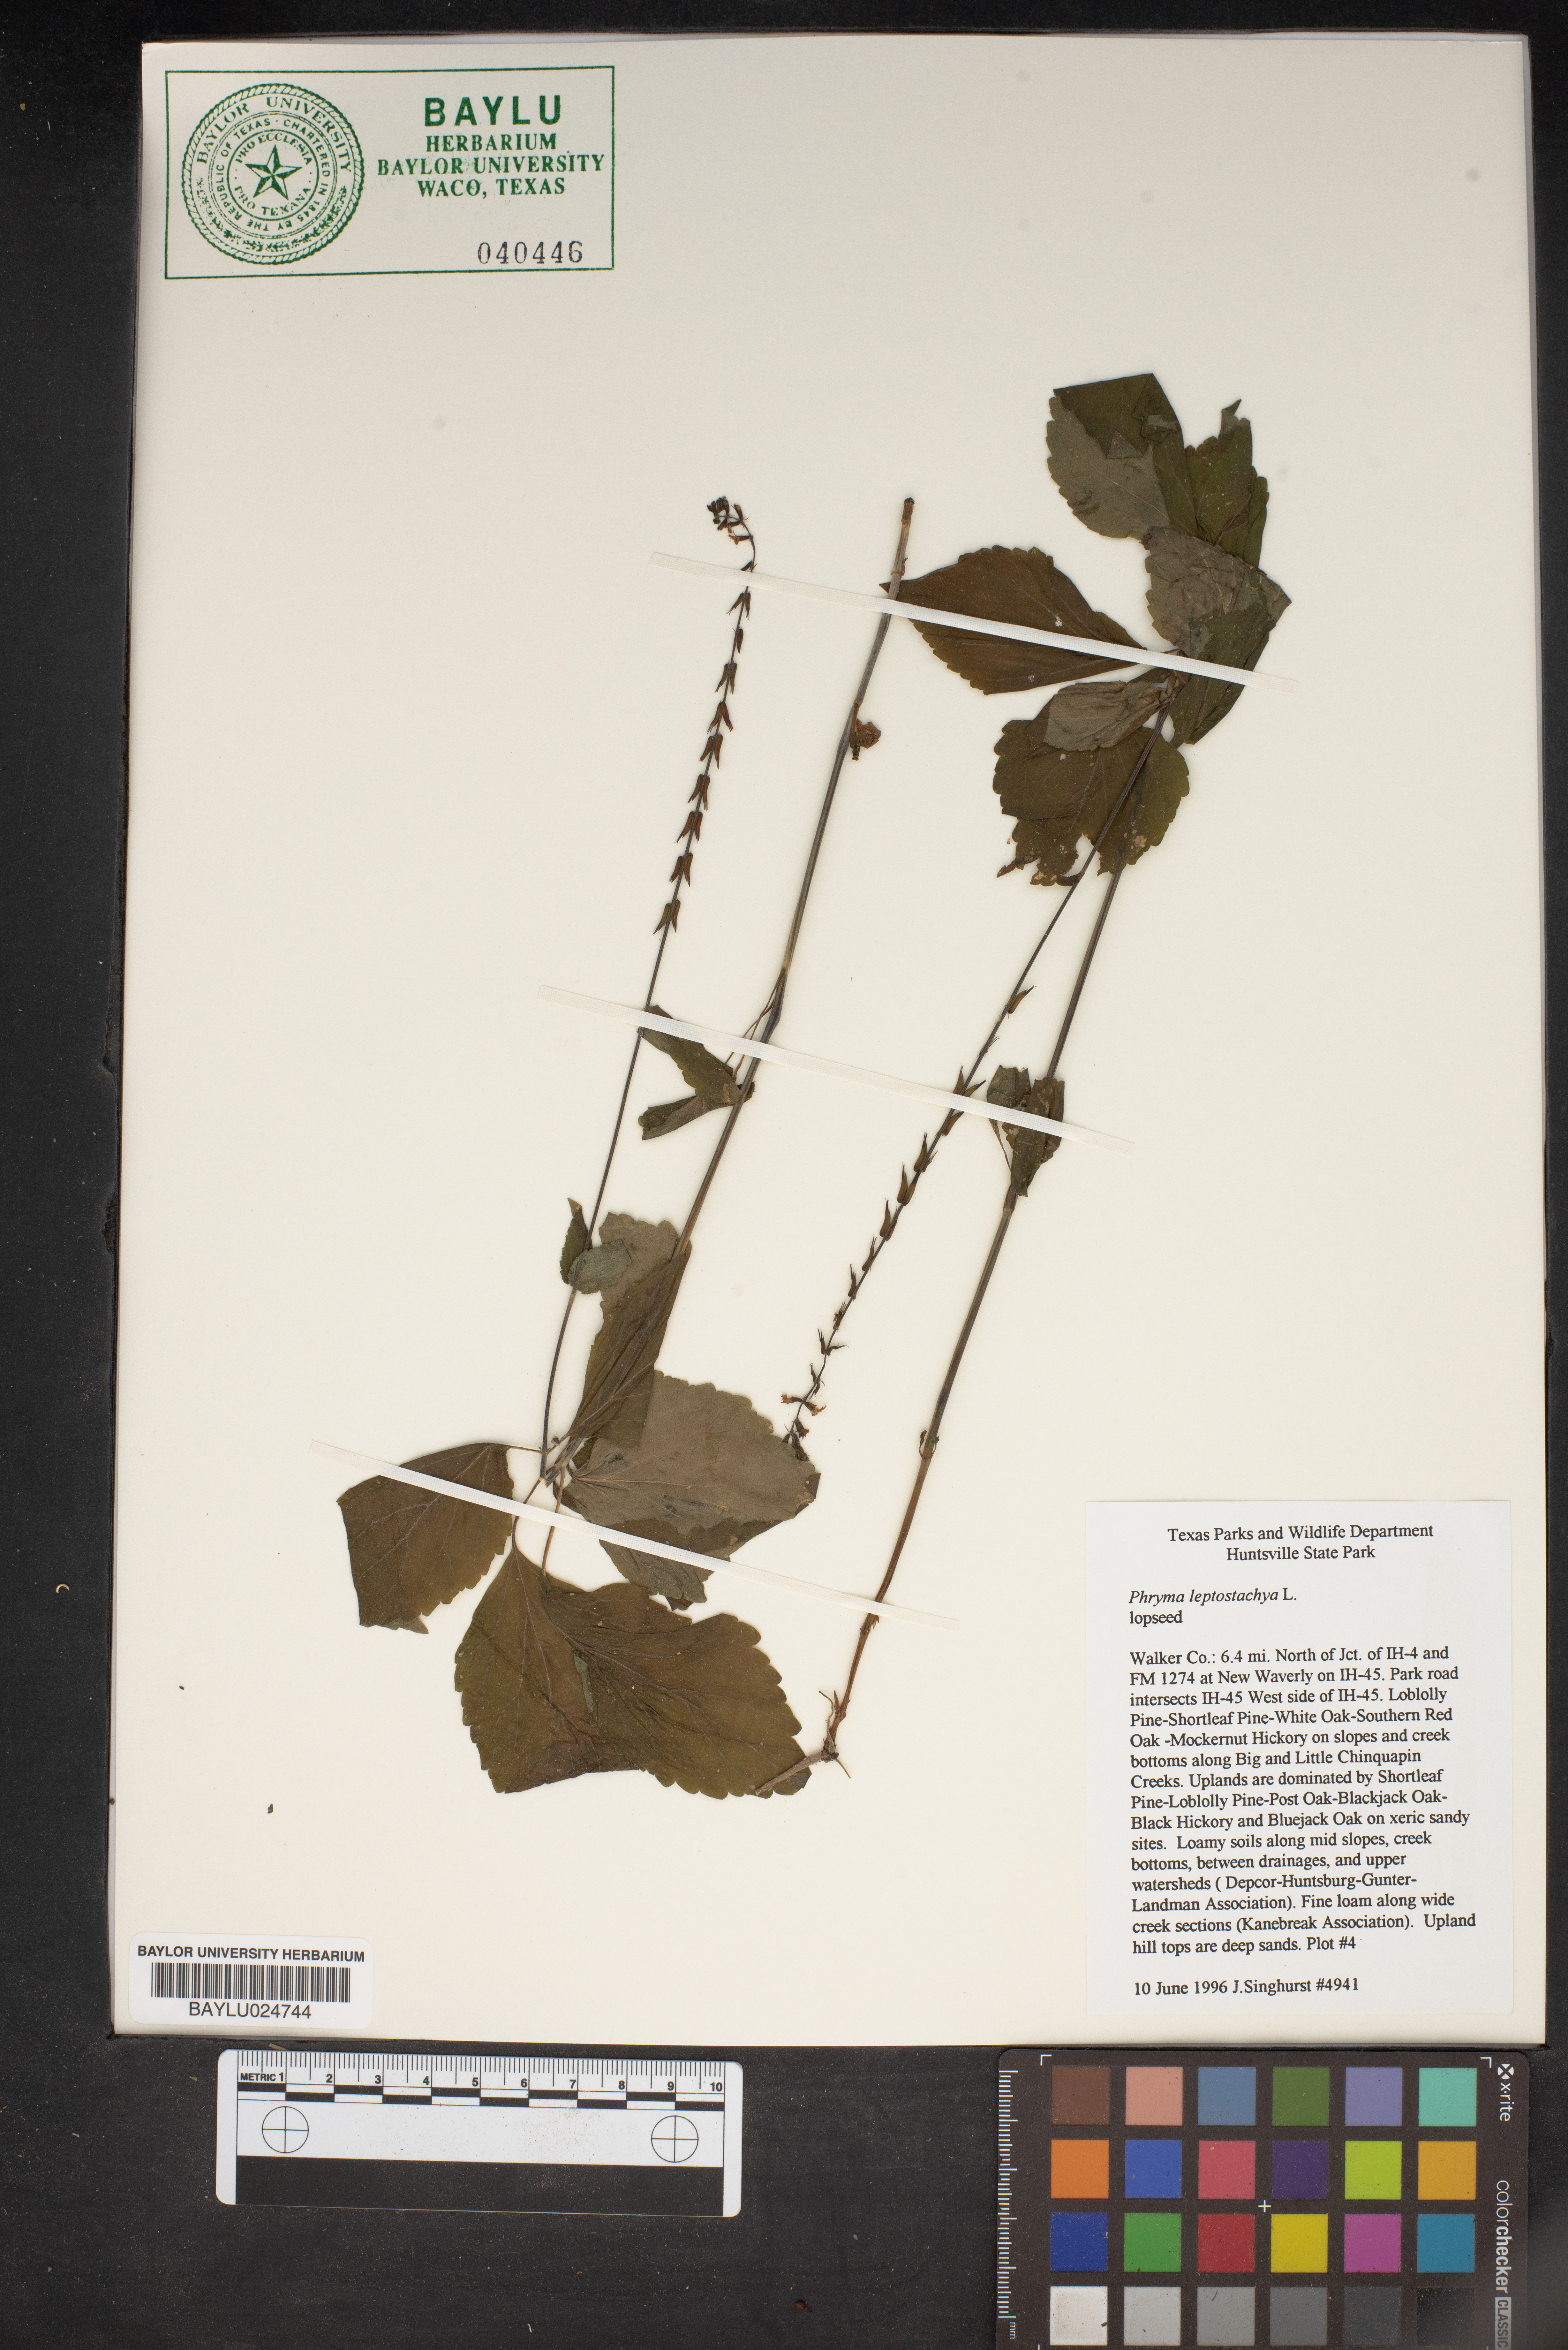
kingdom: Plantae
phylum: Tracheophyta
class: Magnoliopsida
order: Lamiales
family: Phrymaceae
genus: Phryma
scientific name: Phryma leptostachya
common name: American lopseed
